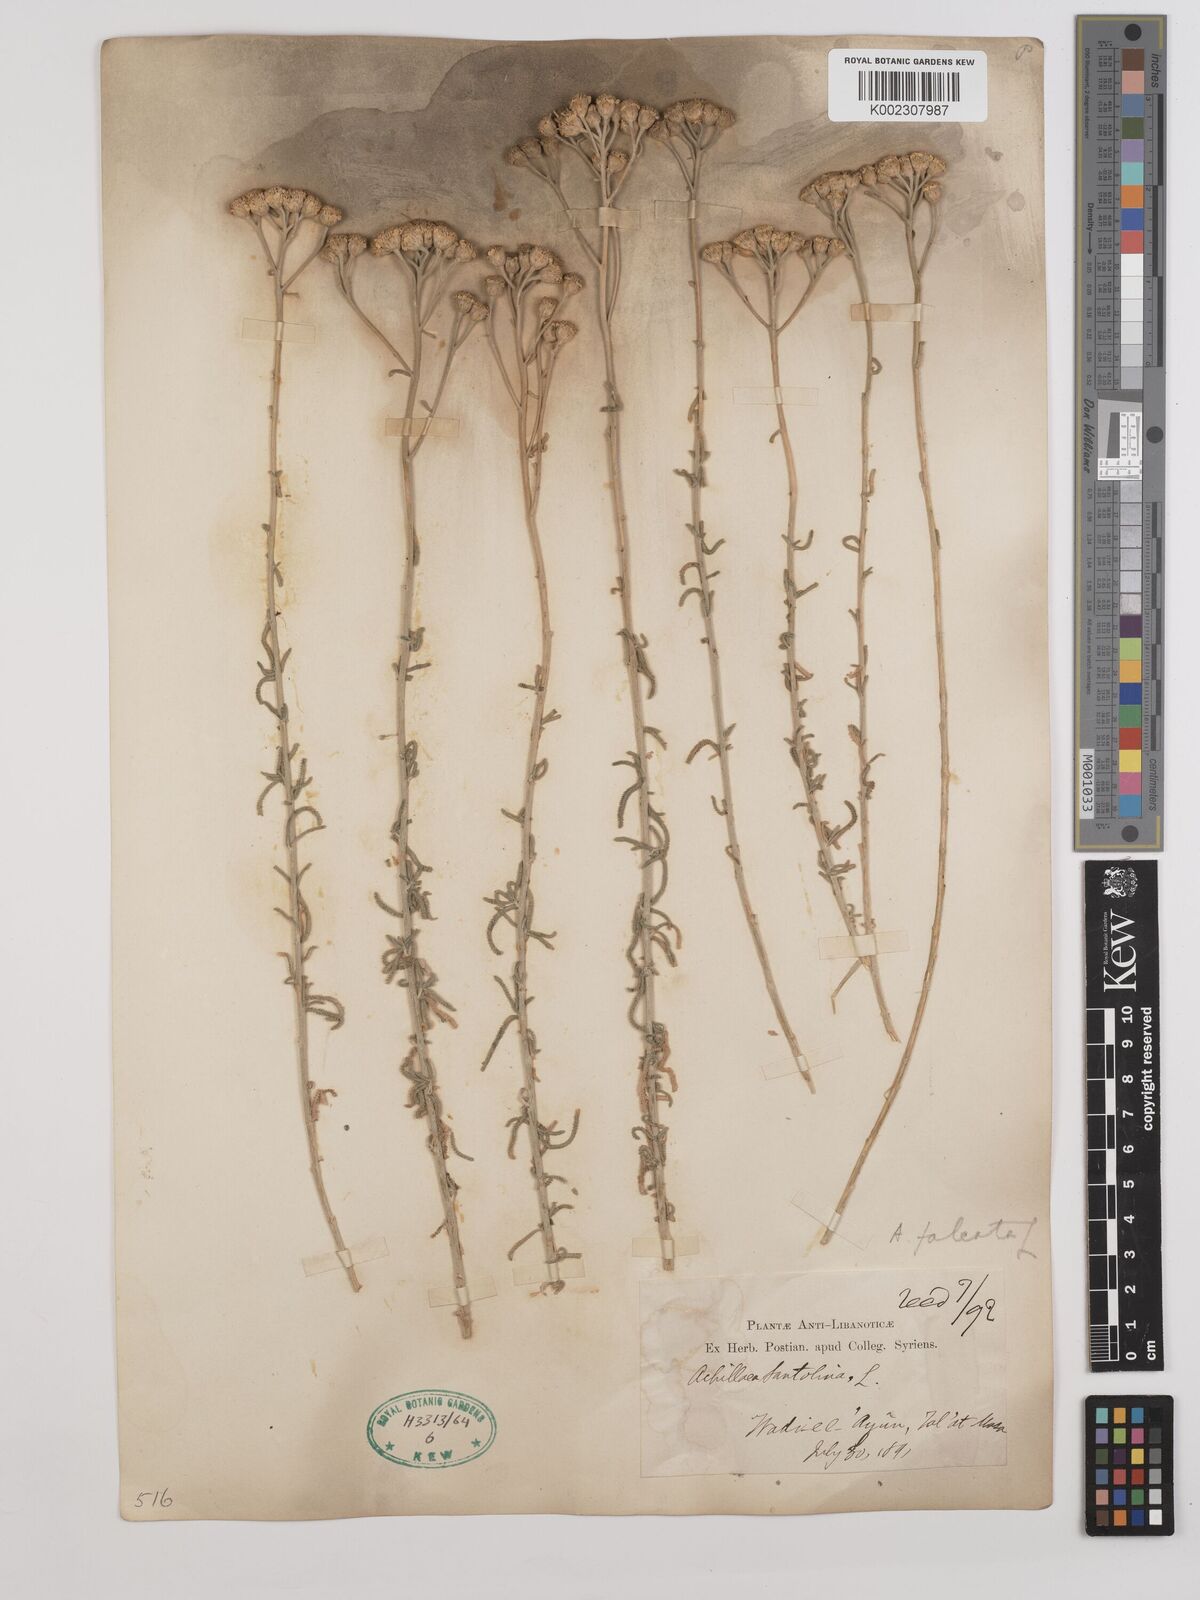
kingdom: Plantae
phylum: Tracheophyta
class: Magnoliopsida
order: Asterales
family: Asteraceae
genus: Achillea
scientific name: Achillea falcata
